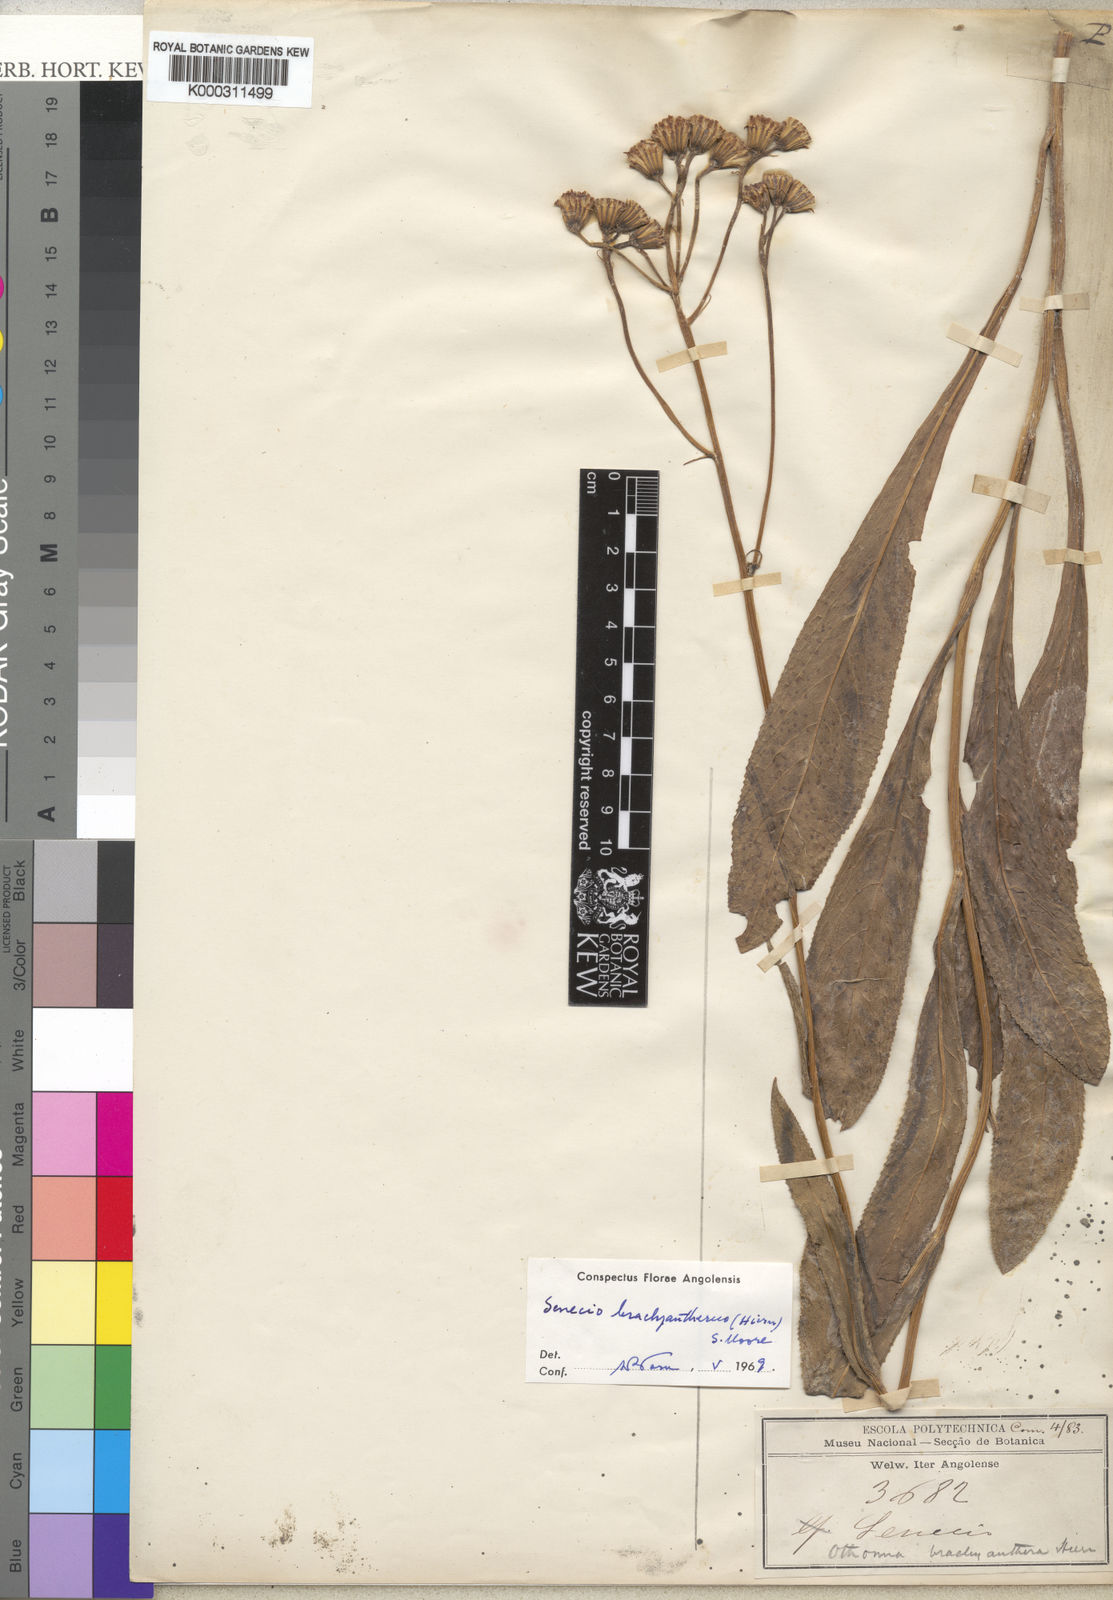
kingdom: Plantae
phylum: Tracheophyta
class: Magnoliopsida
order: Asterales
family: Asteraceae
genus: Senecio
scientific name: Senecio brachyantherus
